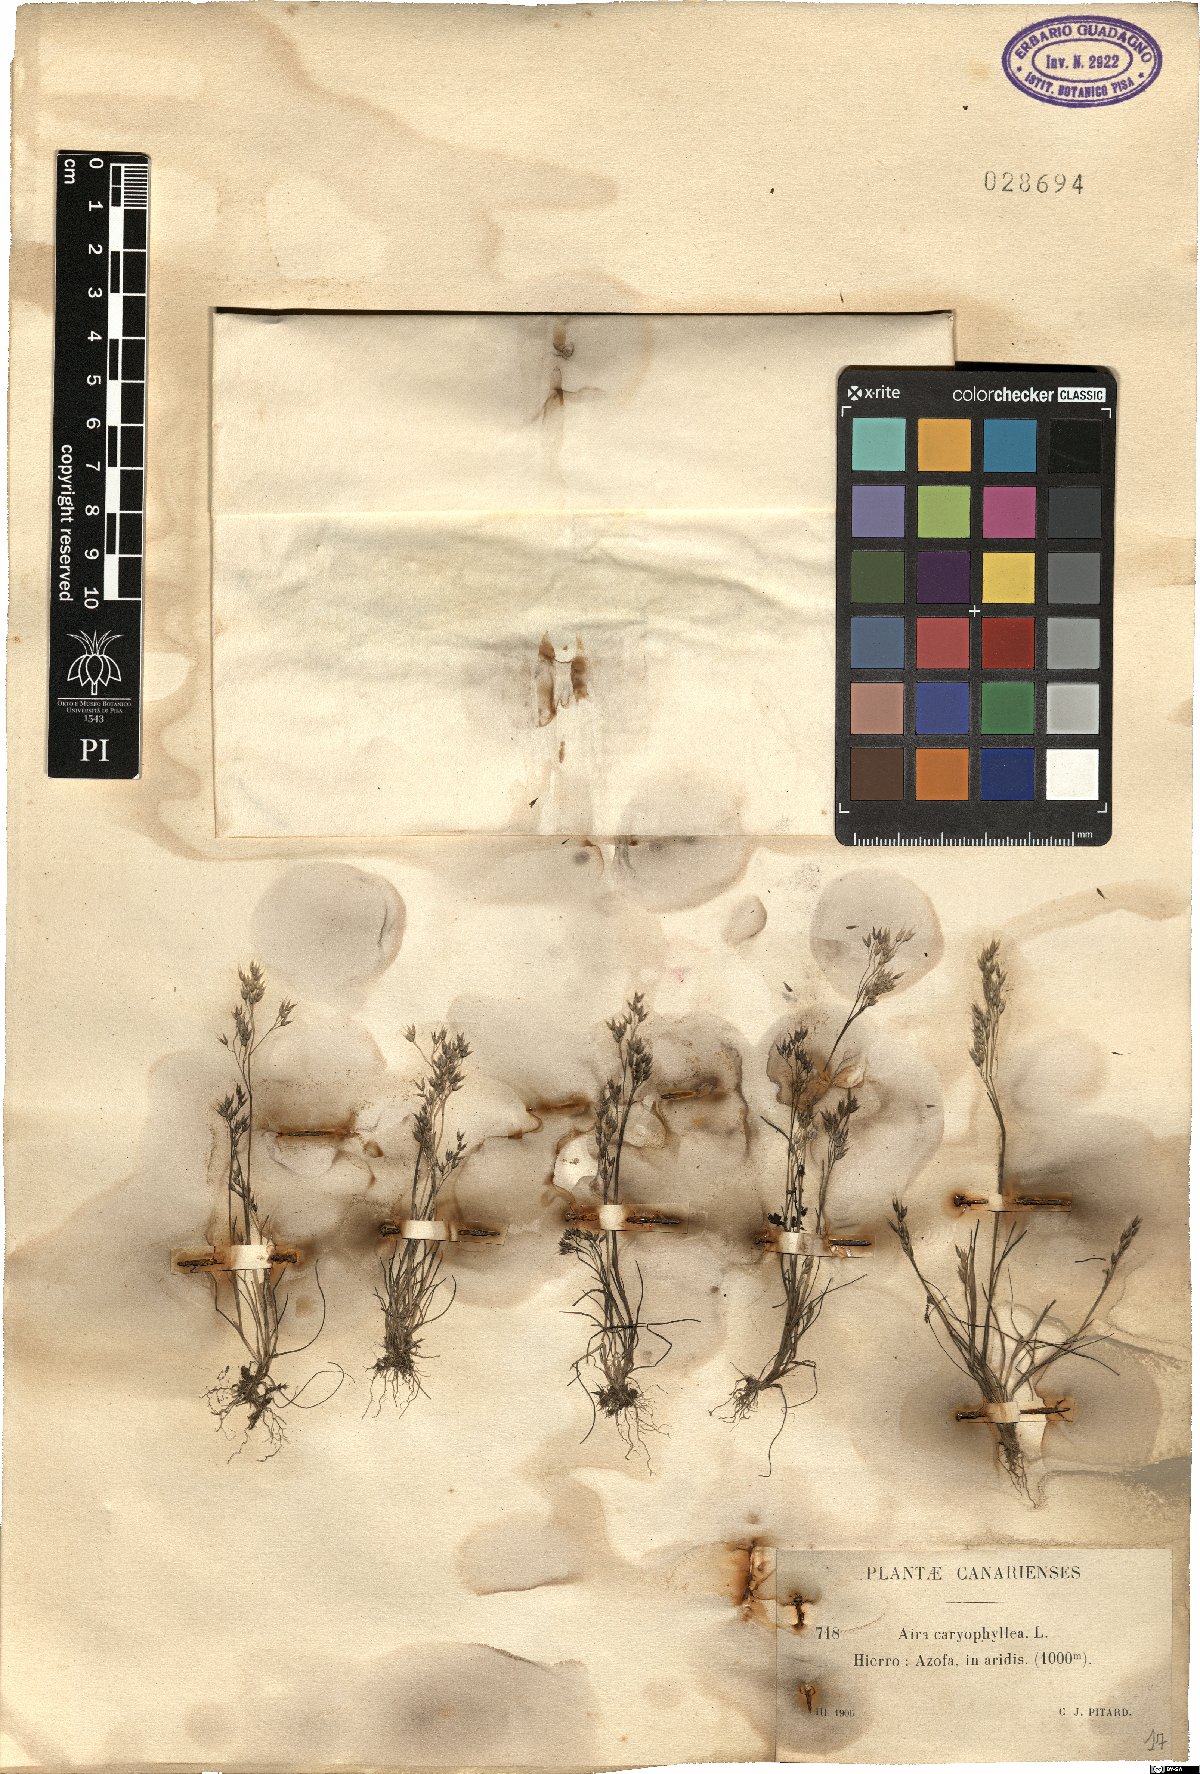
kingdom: Plantae
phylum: Tracheophyta
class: Liliopsida
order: Poales
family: Poaceae
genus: Aira
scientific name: Aira caryophyllea
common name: Silver hairgrass
